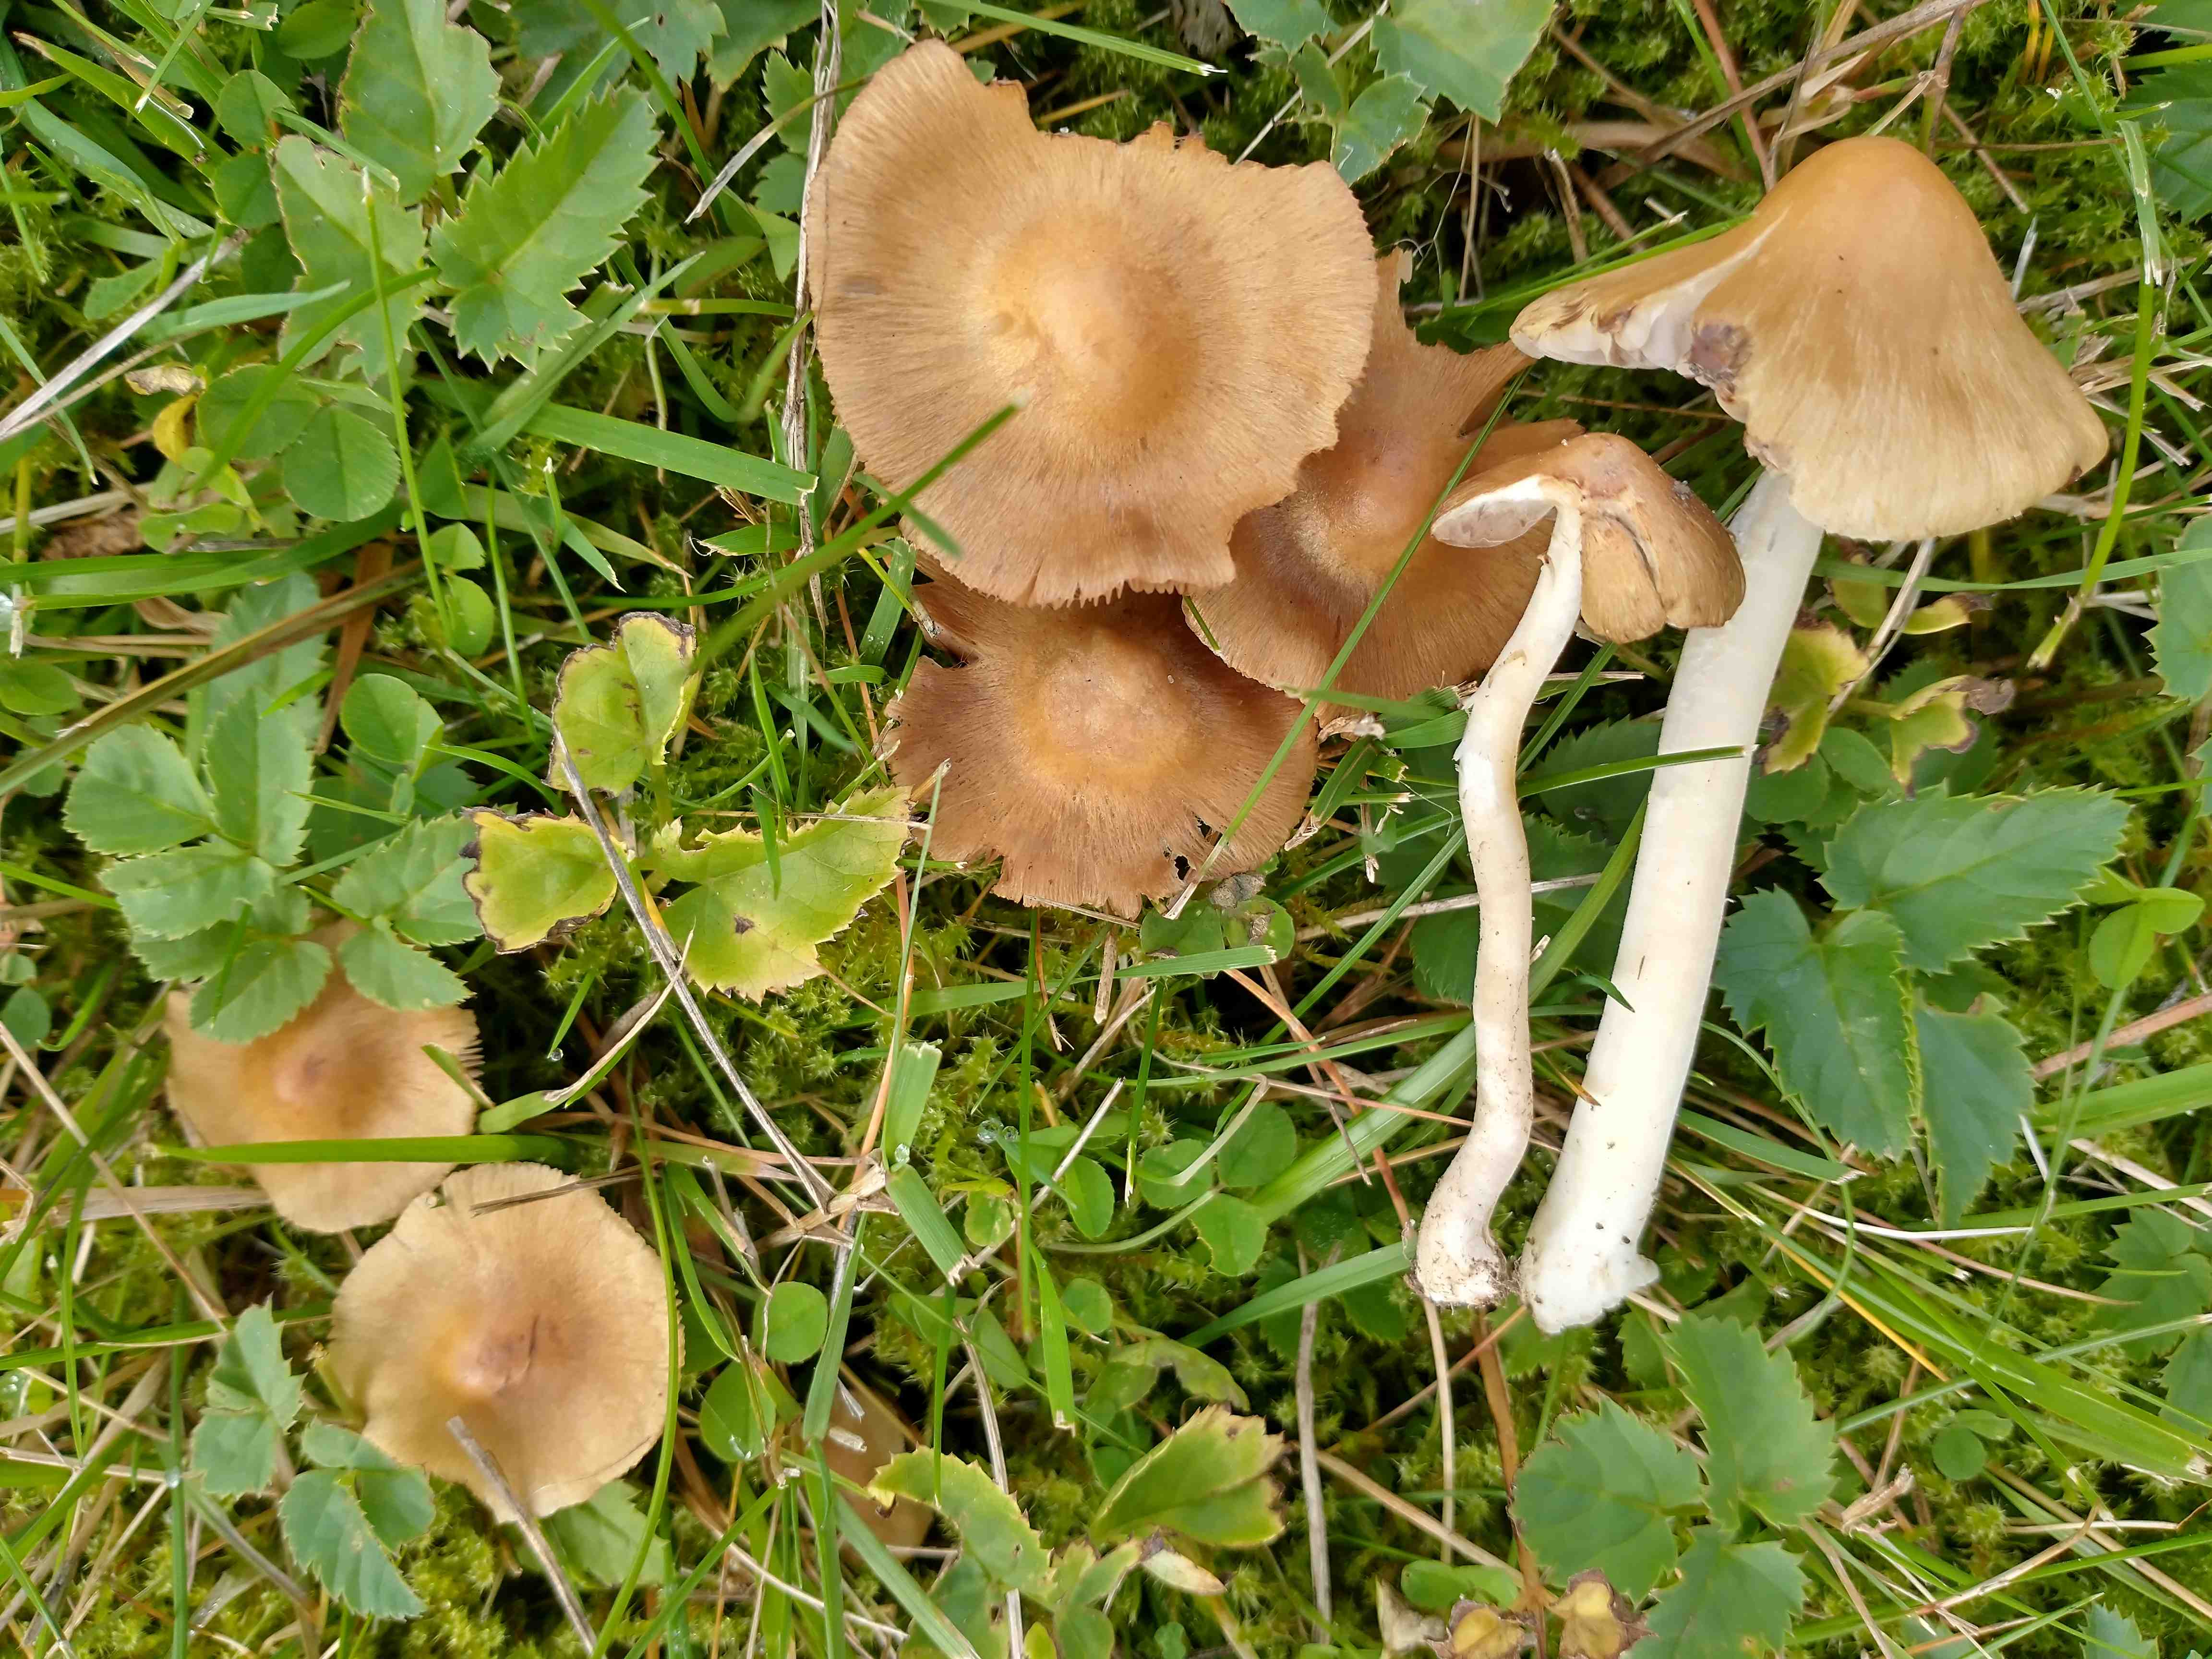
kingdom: Fungi
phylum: Basidiomycota
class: Agaricomycetes
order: Agaricales
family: Inocybaceae
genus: Inocybe
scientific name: Inocybe mixtilis
